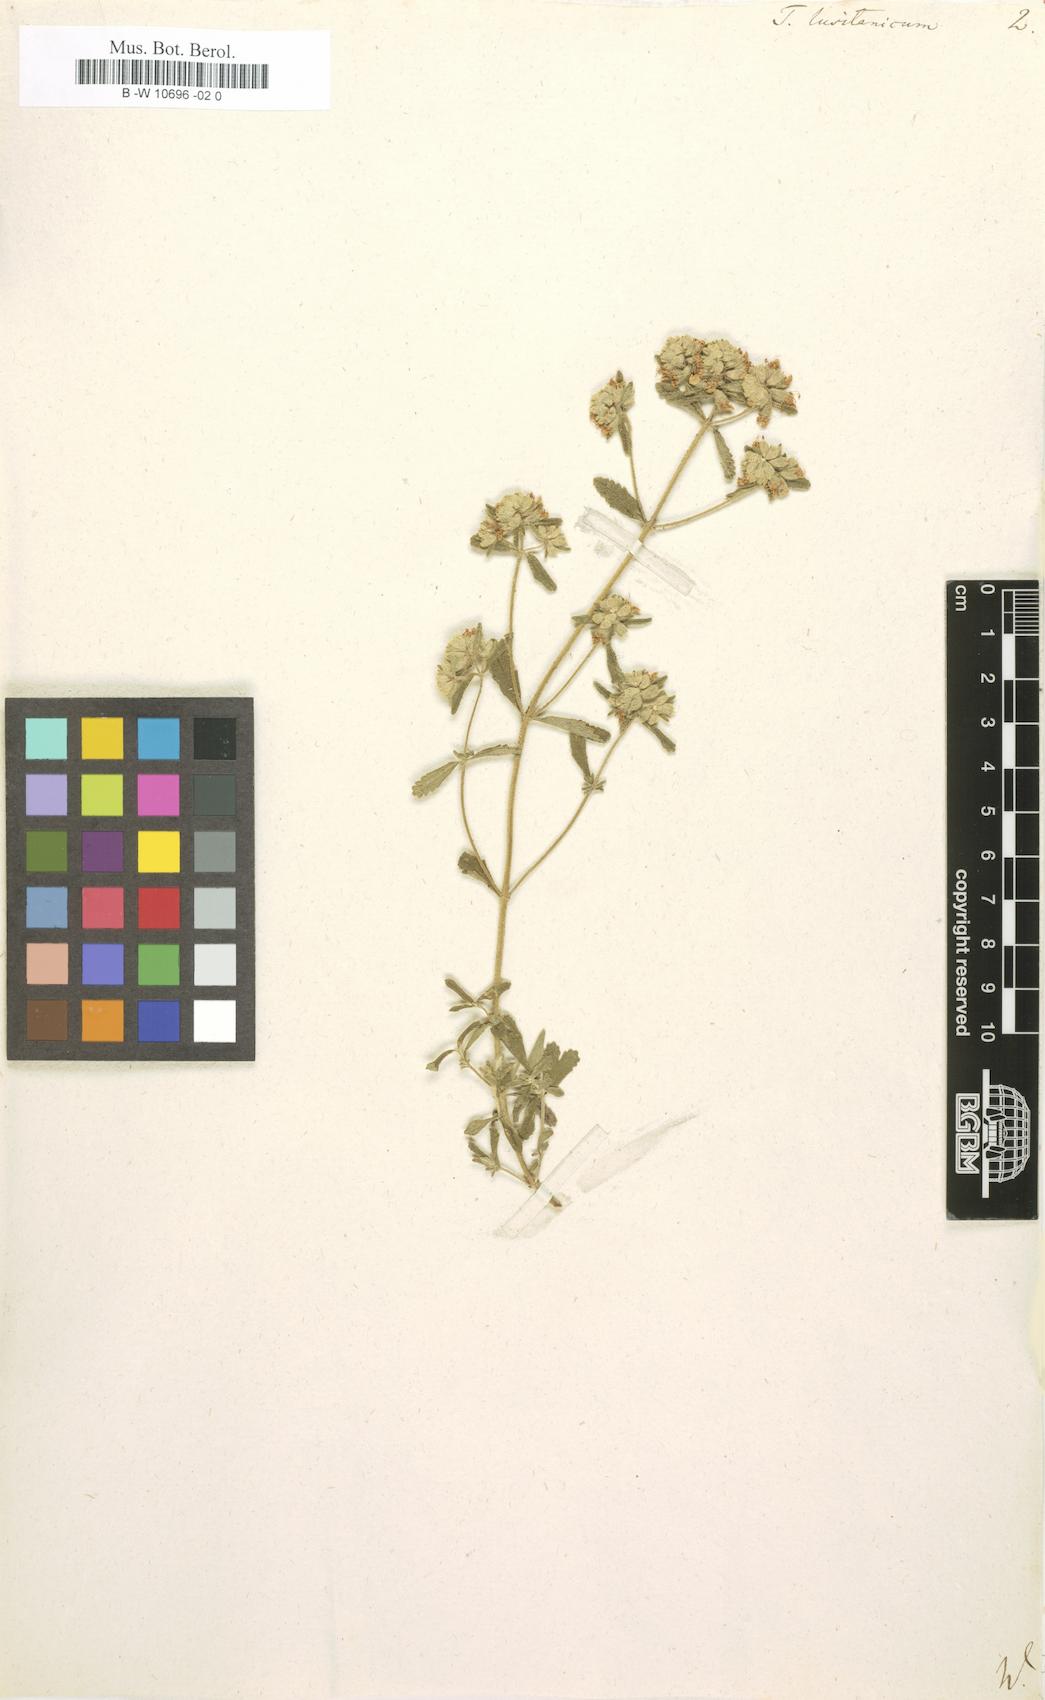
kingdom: Plantae
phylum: Tracheophyta
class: Magnoliopsida
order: Lamiales
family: Lamiaceae
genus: Teucrium
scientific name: Teucrium lusitanicum
